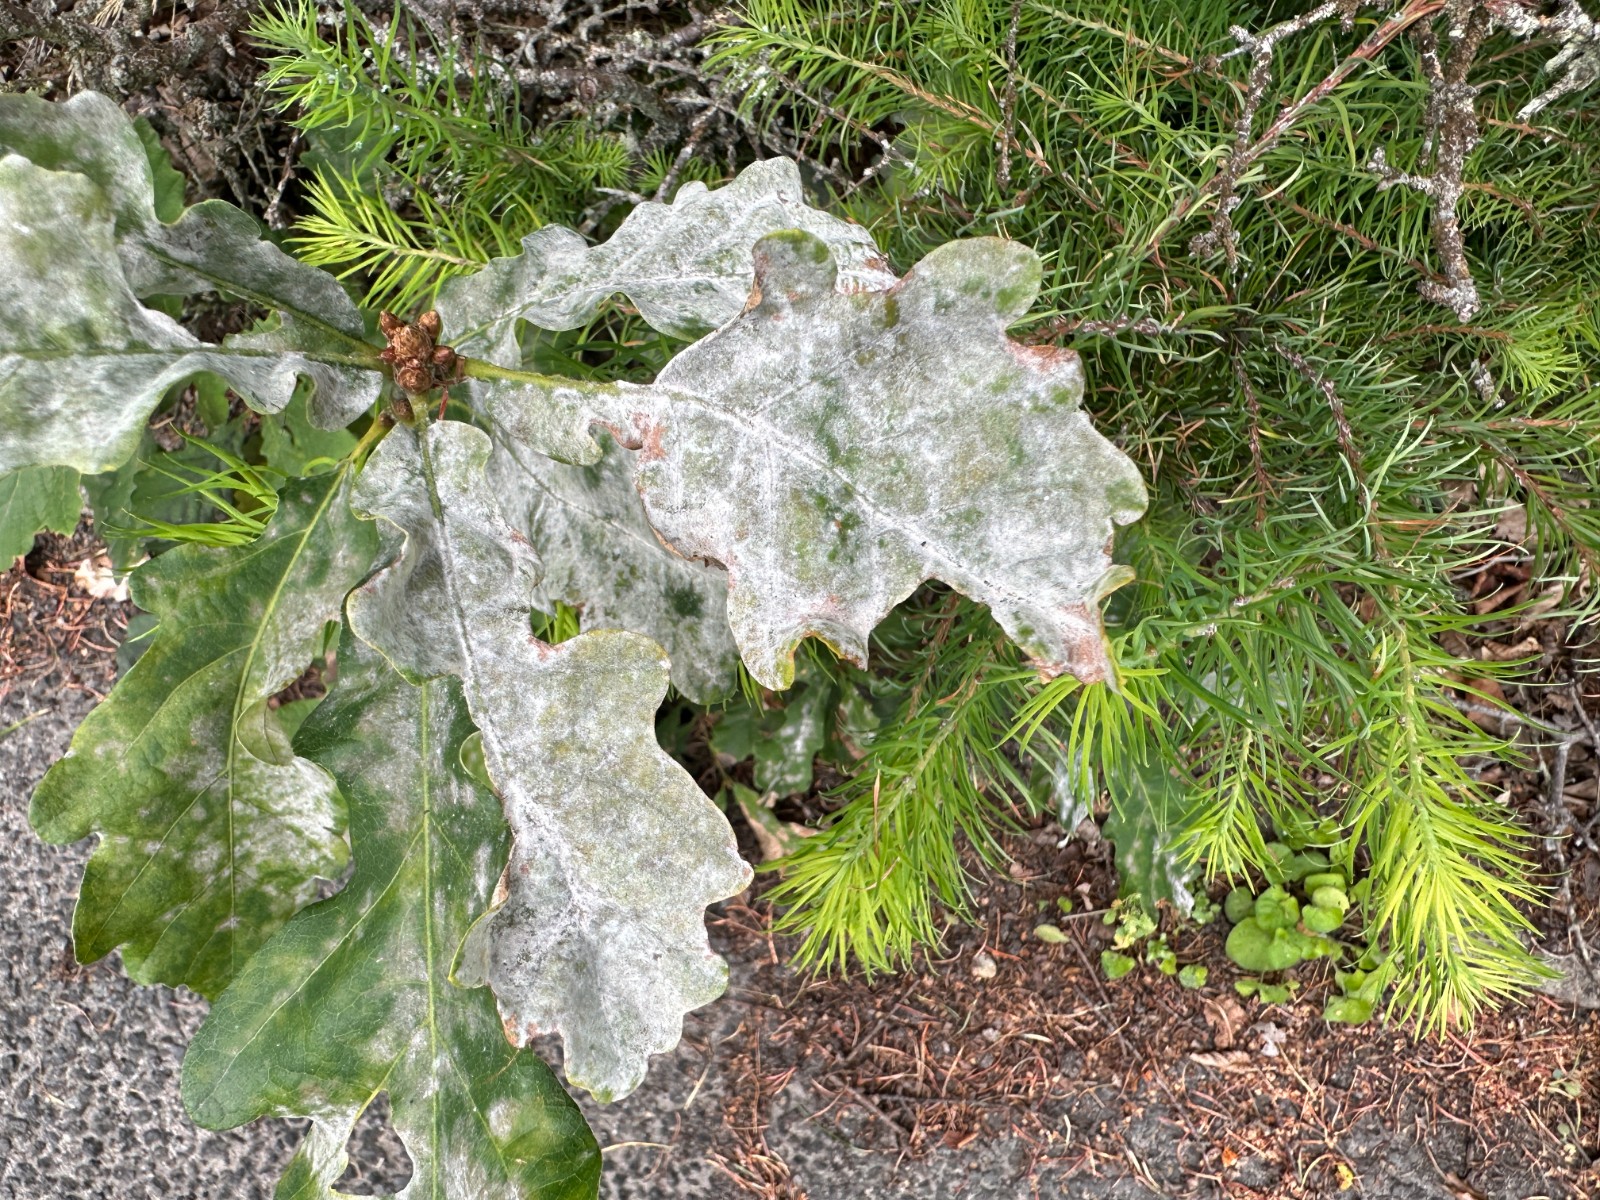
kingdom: Fungi
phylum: Ascomycota
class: Leotiomycetes
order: Helotiales
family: Erysiphaceae
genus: Erysiphe
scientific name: Erysiphe alphitoides
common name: ege-meldug
